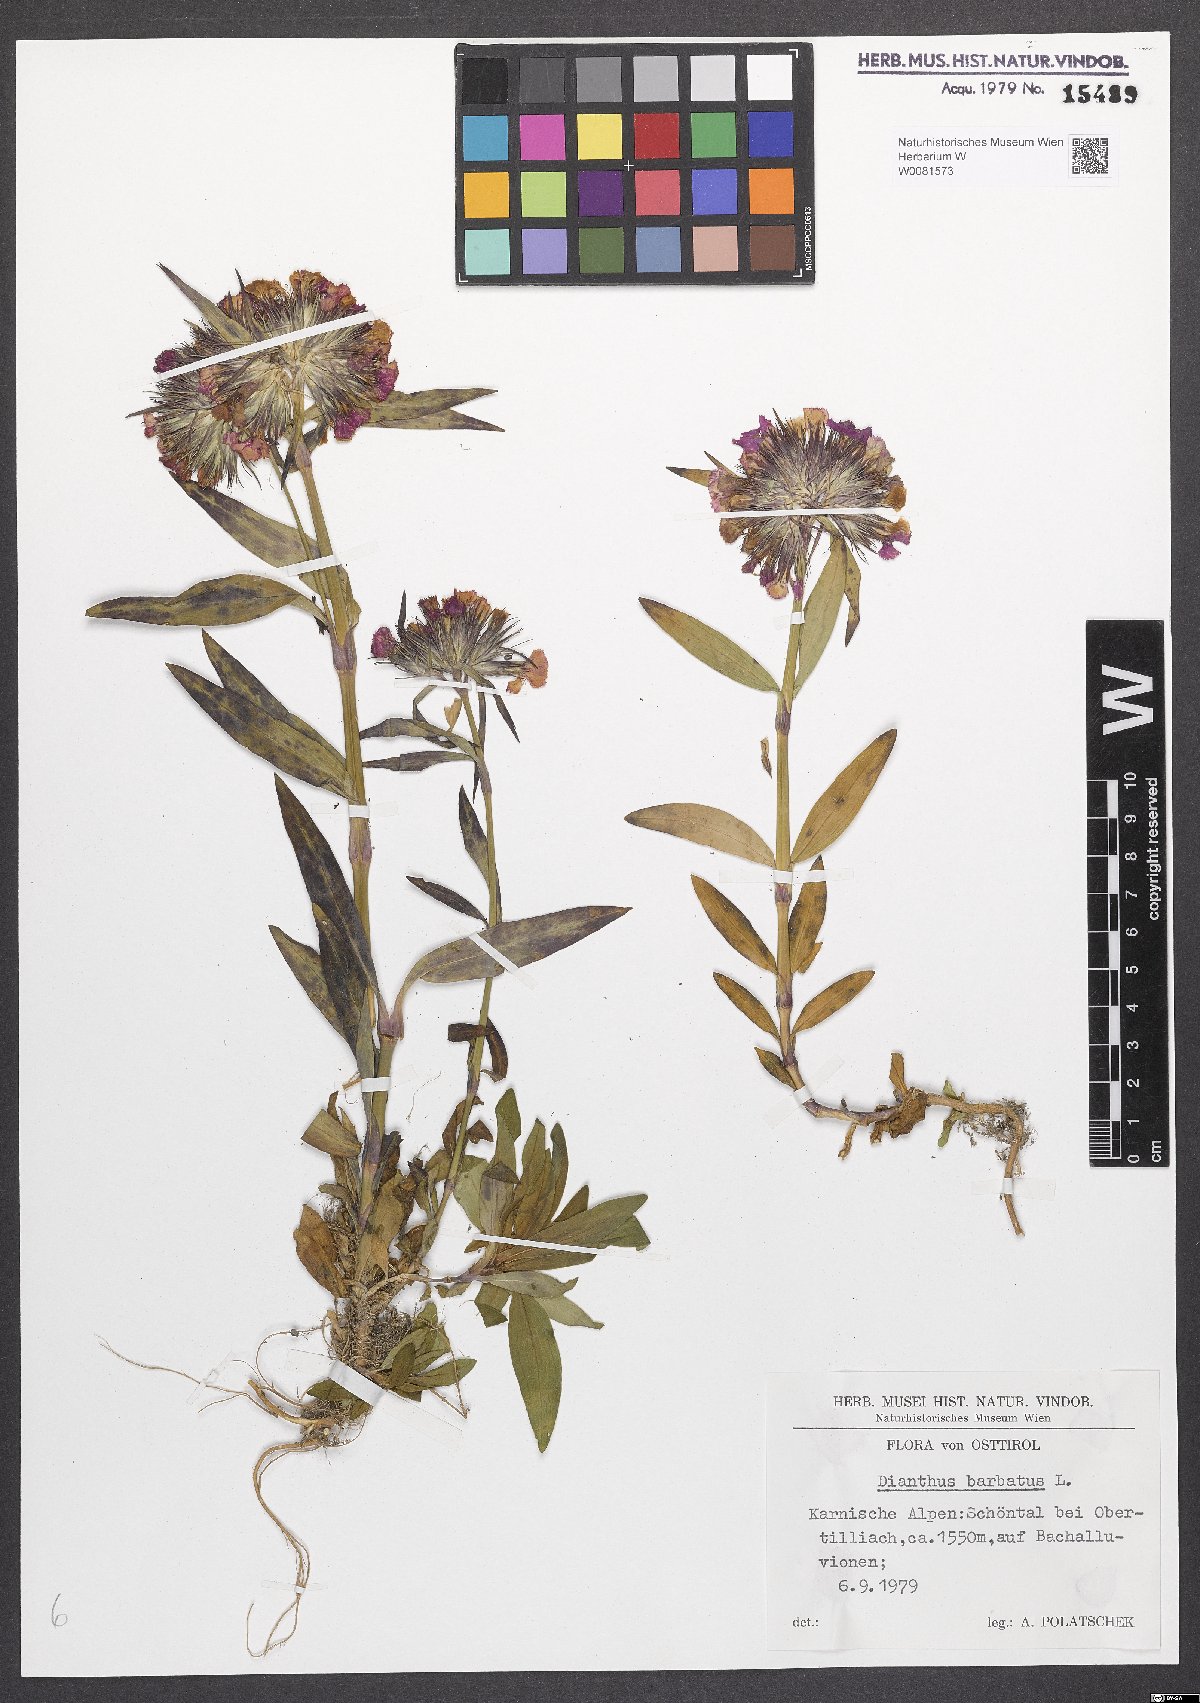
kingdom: Plantae
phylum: Tracheophyta
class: Magnoliopsida
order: Caryophyllales
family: Caryophyllaceae
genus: Dianthus
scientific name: Dianthus barbatus
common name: Sweet-william
